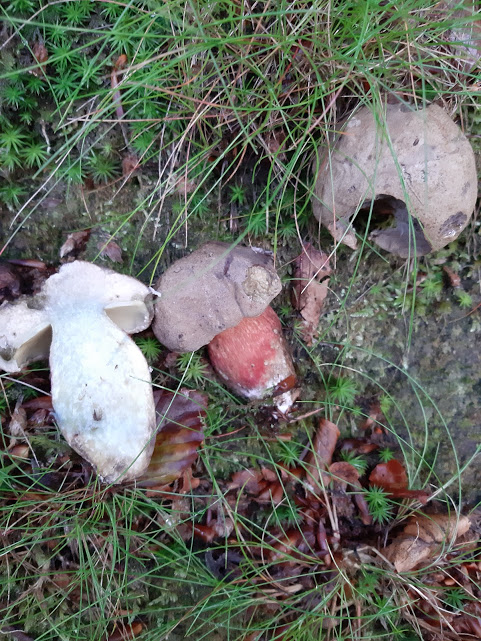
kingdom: Fungi
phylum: Basidiomycota
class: Agaricomycetes
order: Boletales
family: Boletaceae
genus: Caloboletus
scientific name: Caloboletus calopus
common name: skønfodet rørhat
